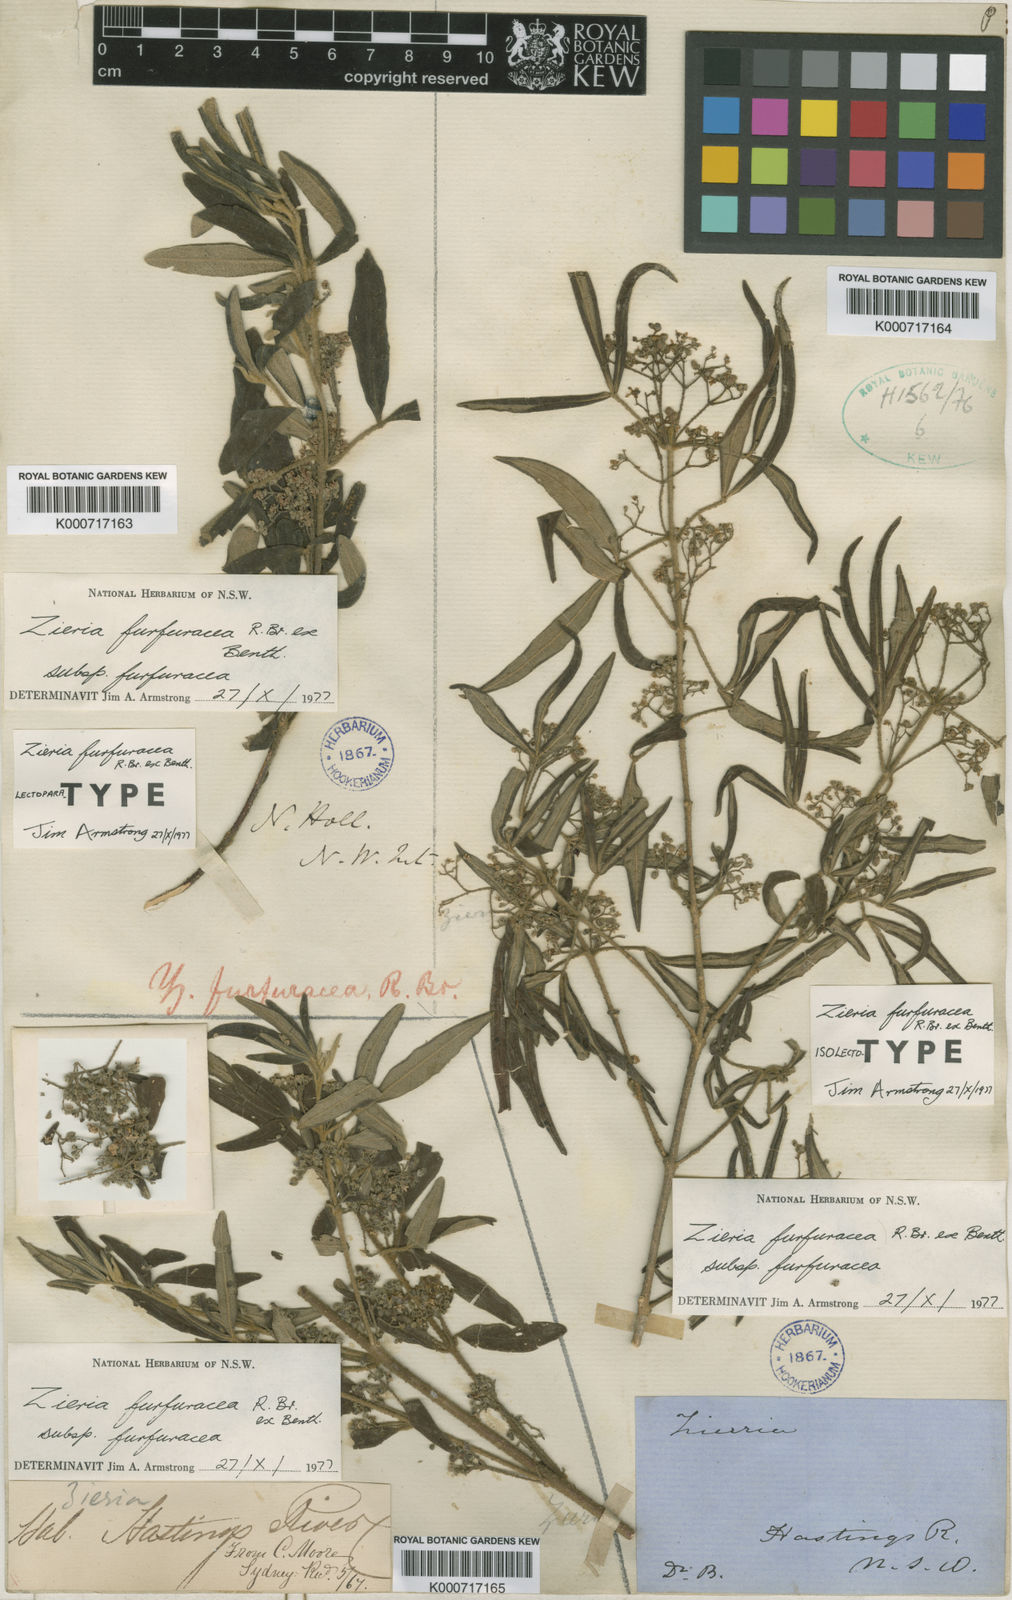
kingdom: Plantae
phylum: Tracheophyta
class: Magnoliopsida
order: Sapindales
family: Rutaceae
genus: Zieria
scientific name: Zieria furfuracea
